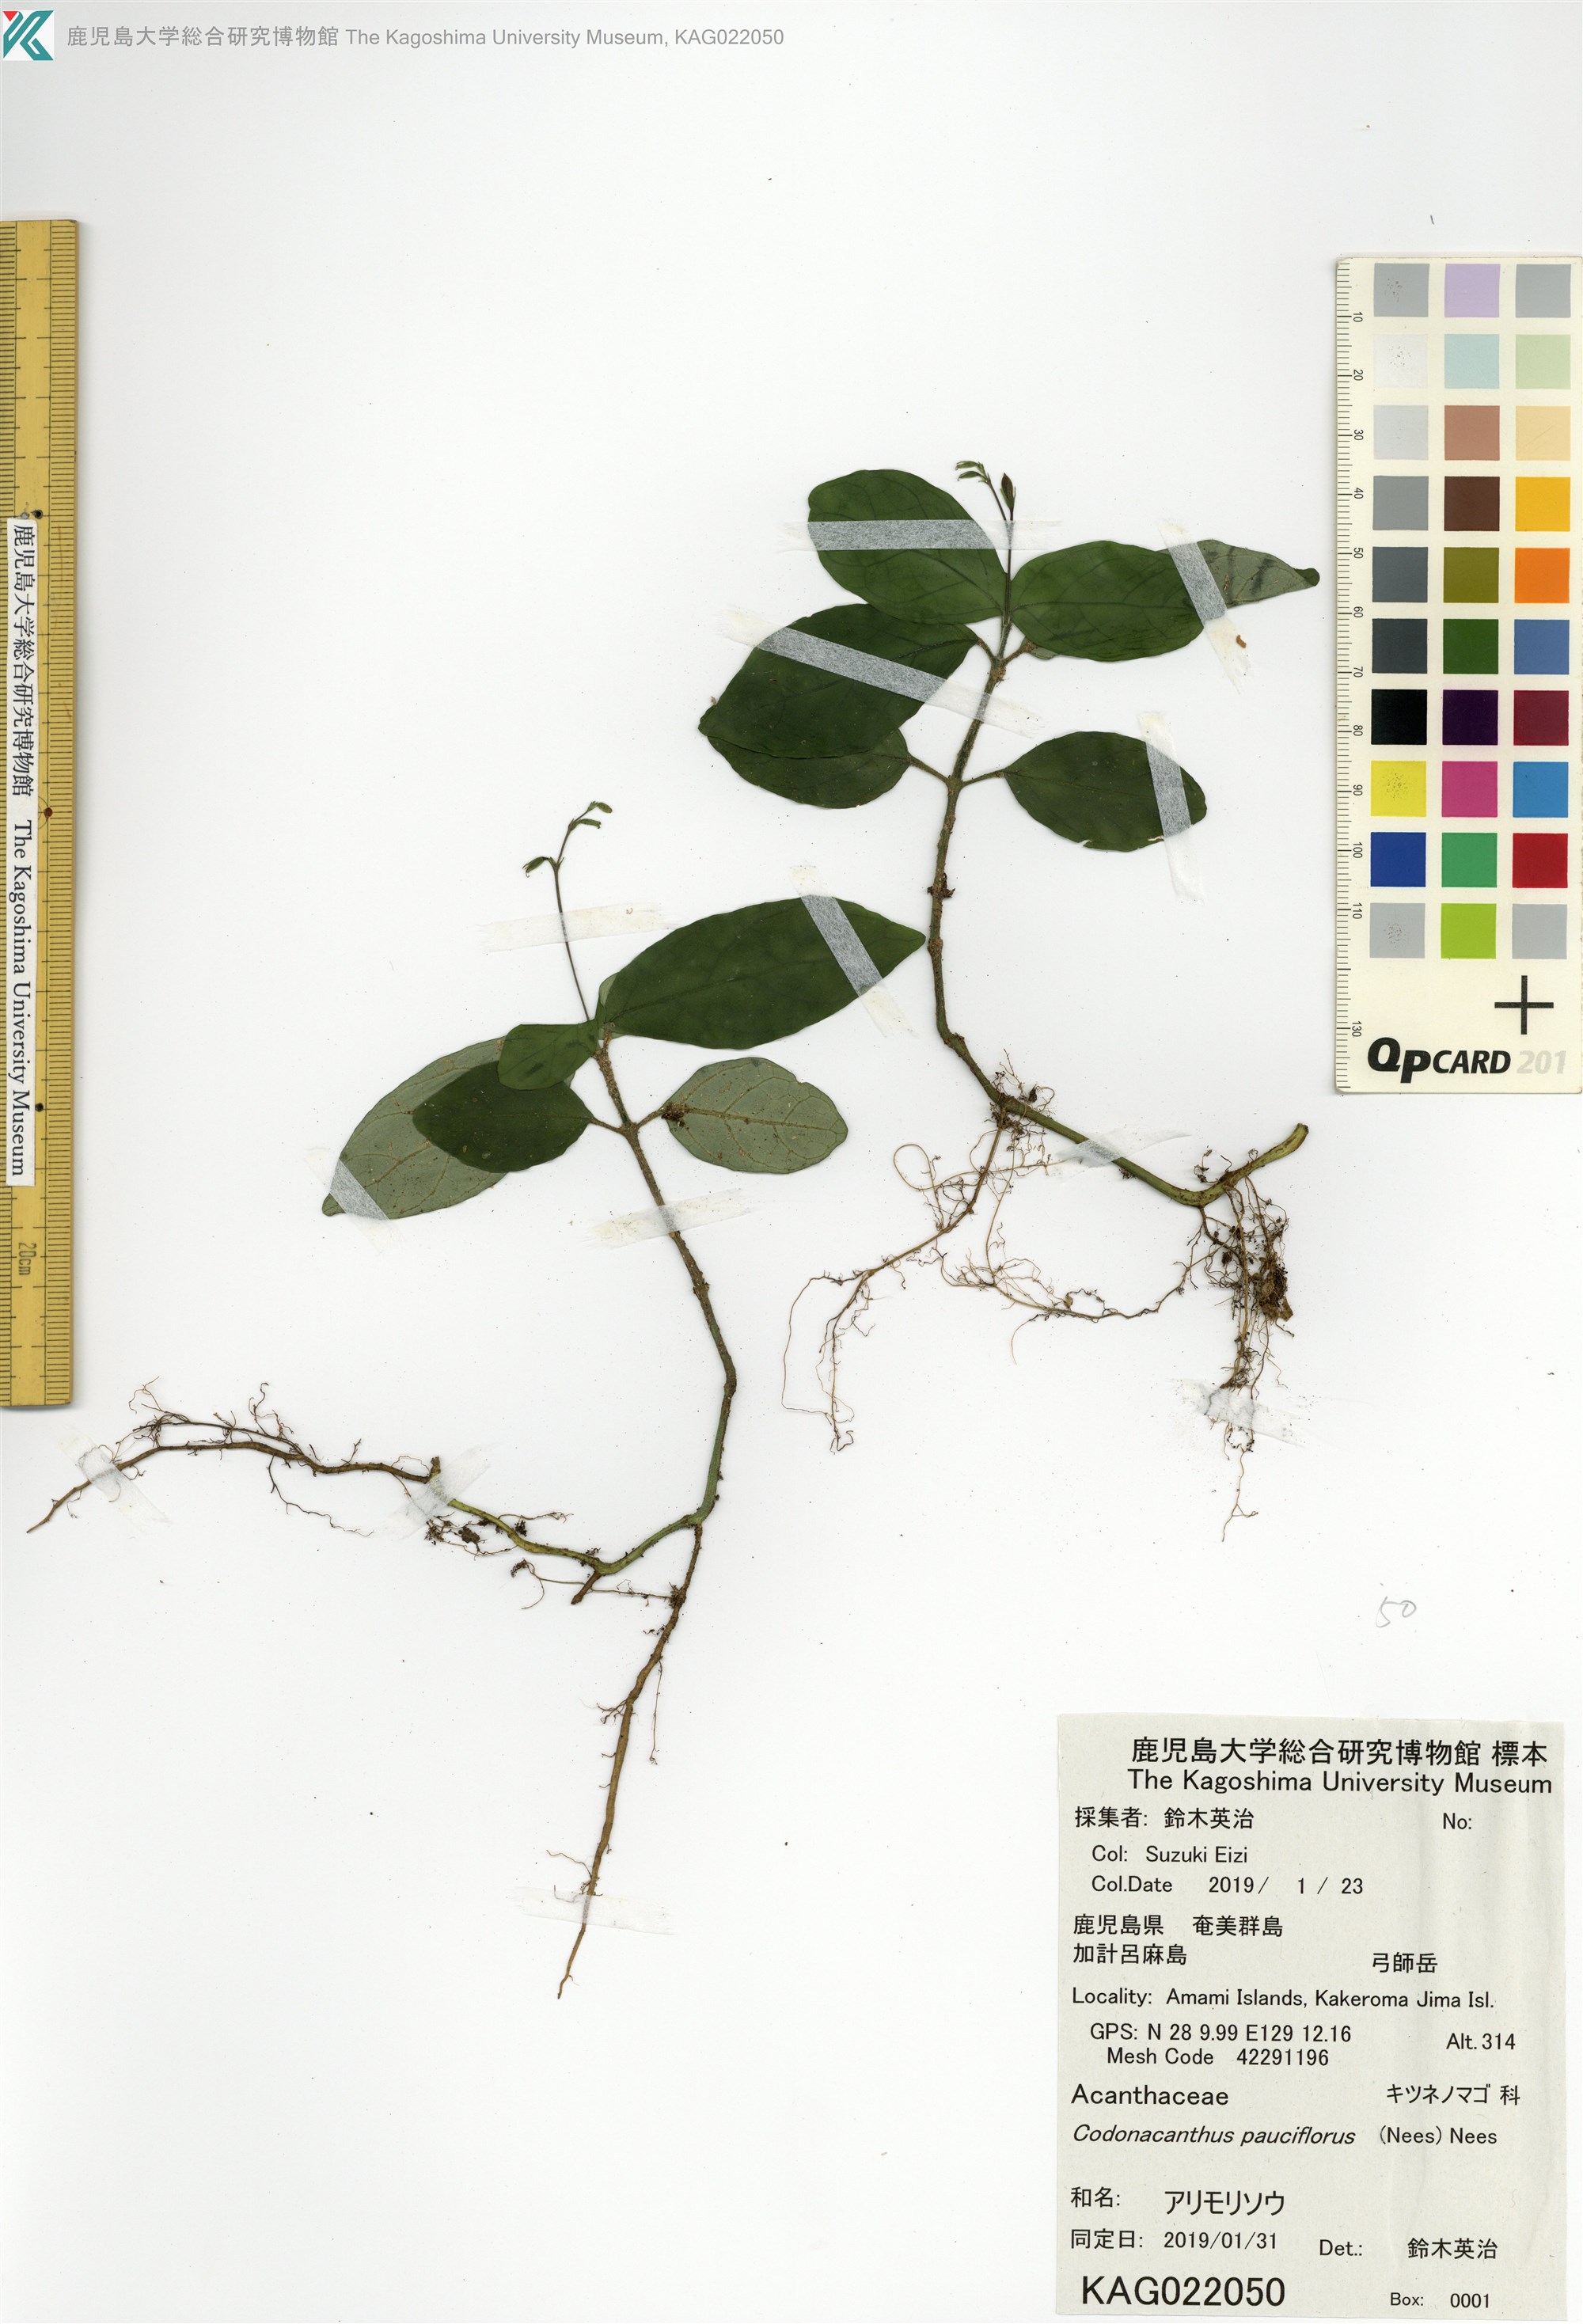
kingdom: Plantae
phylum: Tracheophyta
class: Magnoliopsida
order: Lamiales
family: Acanthaceae
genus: Codonacanthus
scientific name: Codonacanthus pauciflorus
